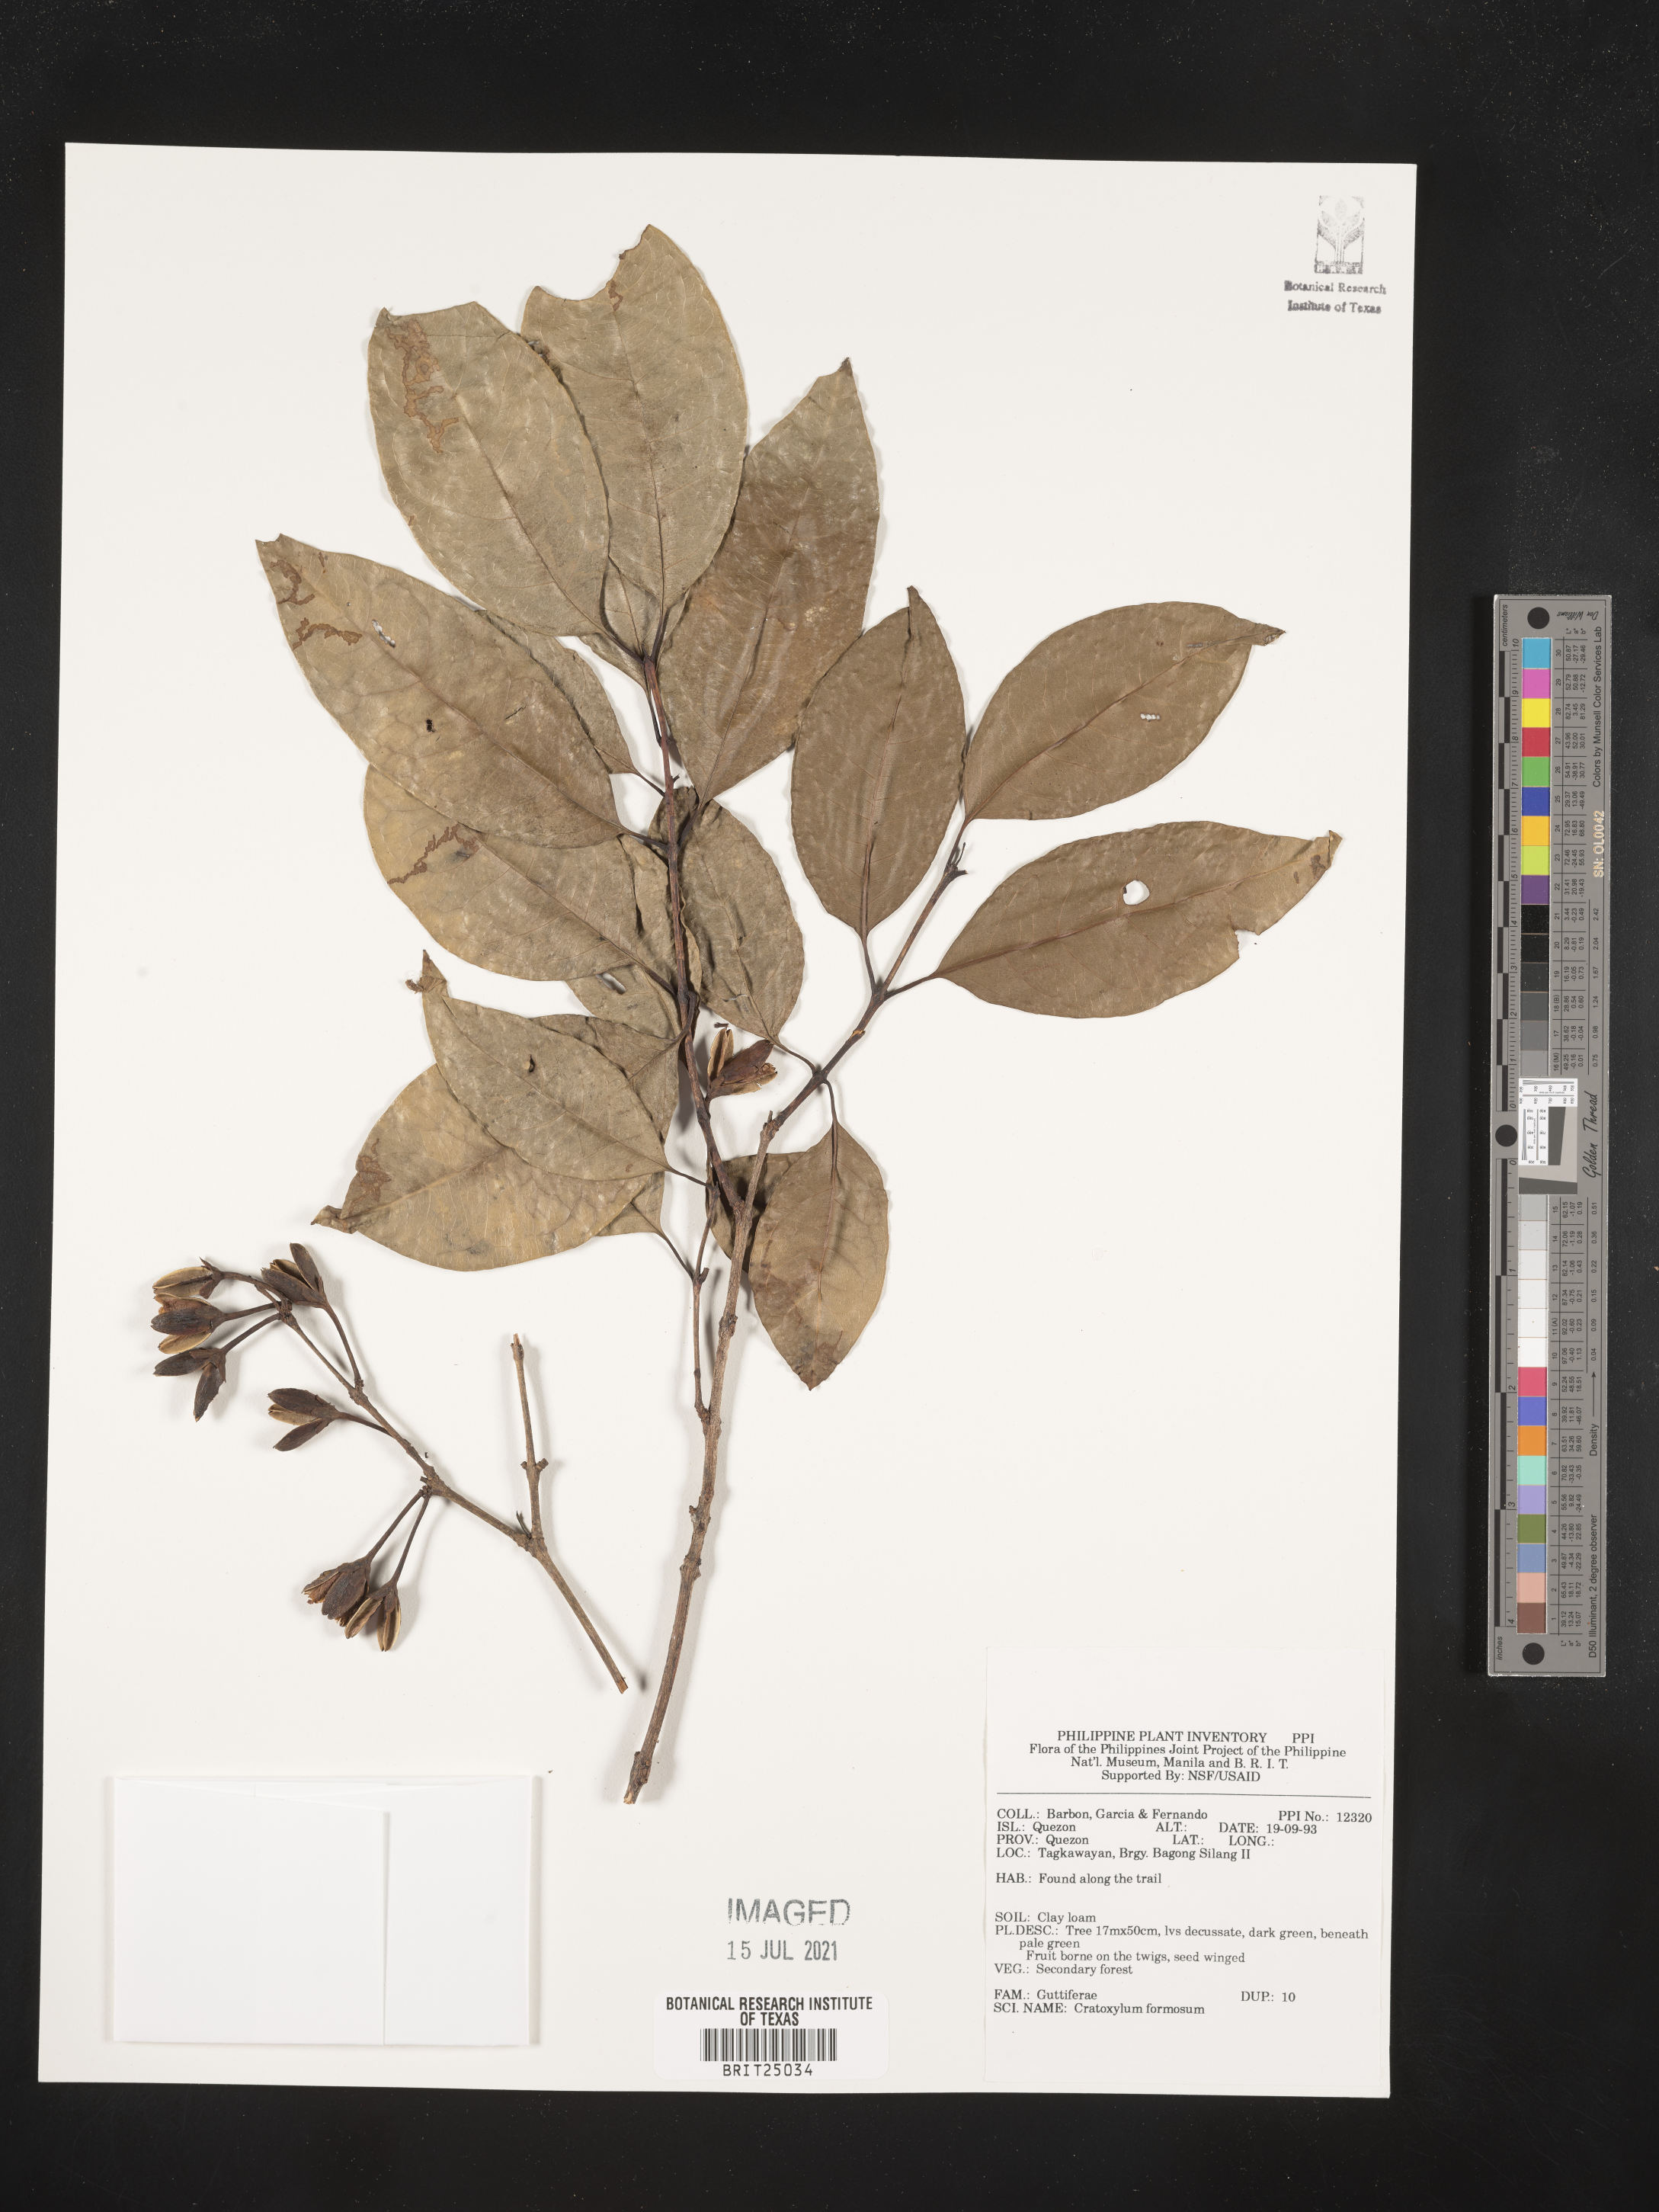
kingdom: Plantae
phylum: Tracheophyta
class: Magnoliopsida
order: Malpighiales
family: Hypericaceae
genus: Cratoxylum
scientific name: Cratoxylum formosum
